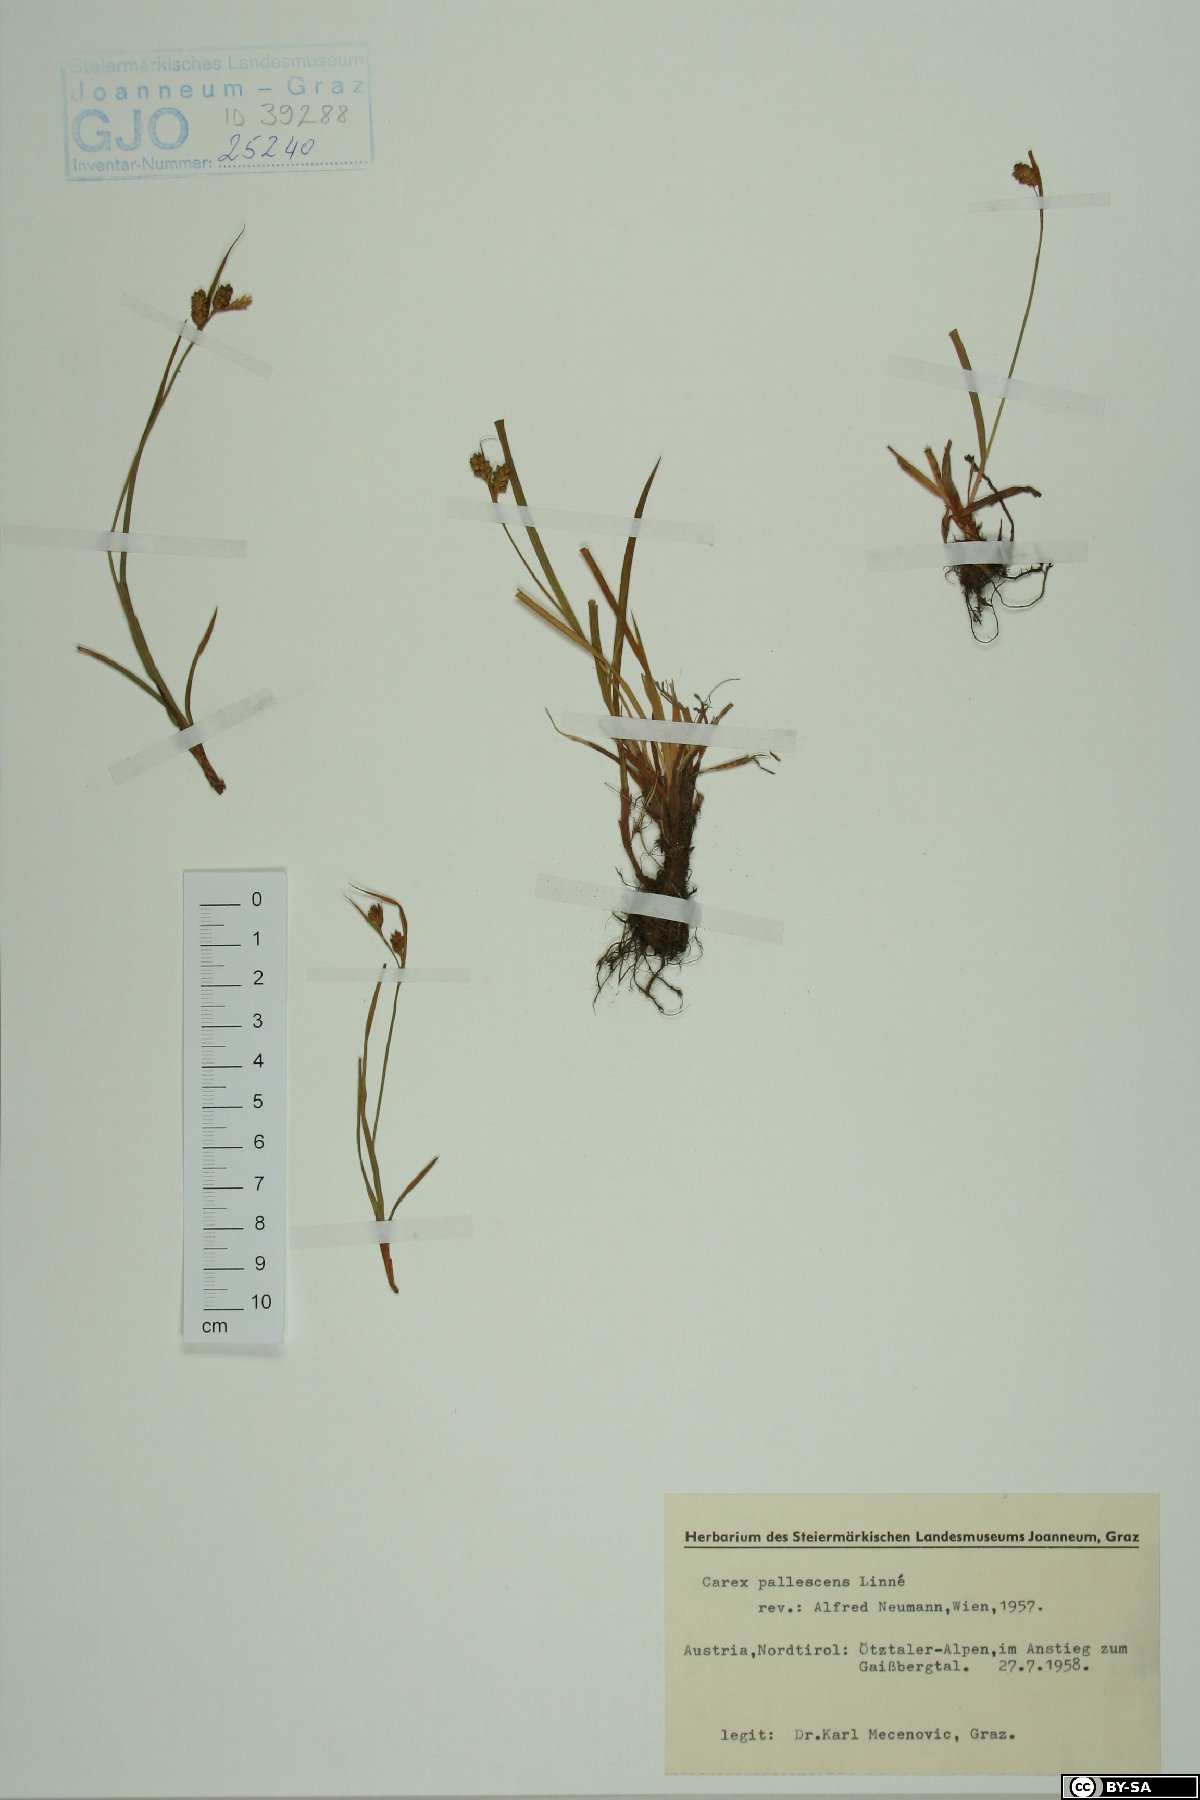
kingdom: Plantae
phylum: Tracheophyta
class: Liliopsida
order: Poales
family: Cyperaceae
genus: Carex
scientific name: Carex pallescens
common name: Pale sedge
